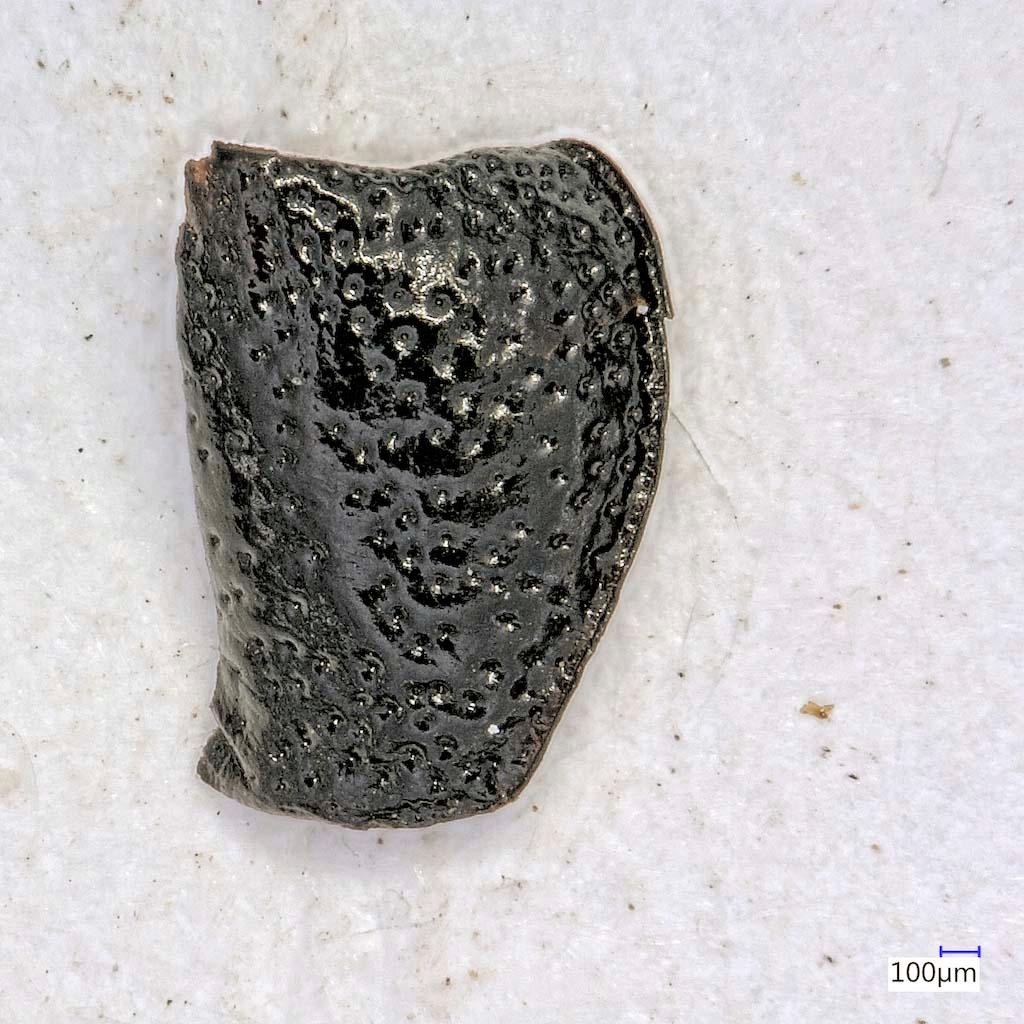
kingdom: Animalia
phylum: Arthropoda
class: Insecta
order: Coleoptera
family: Carabidae
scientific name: Carabidae
